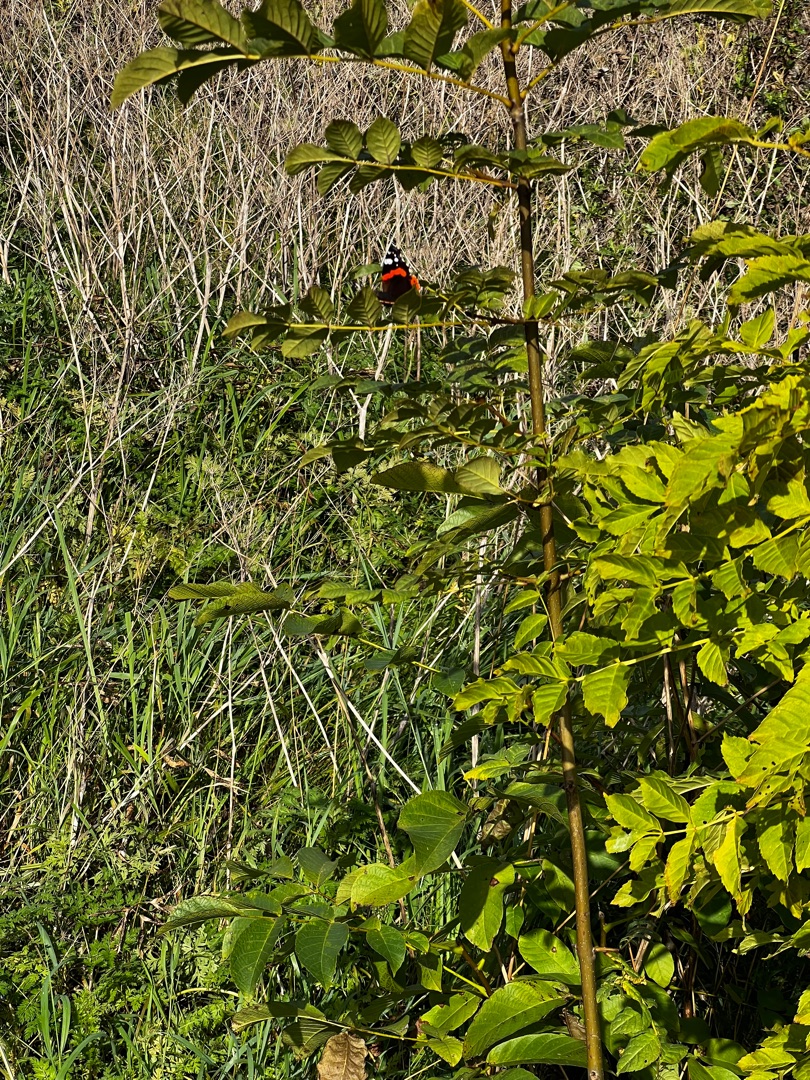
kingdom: Animalia
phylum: Arthropoda
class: Insecta
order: Lepidoptera
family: Nymphalidae
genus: Vanessa
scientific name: Vanessa atalanta
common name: Admiral
